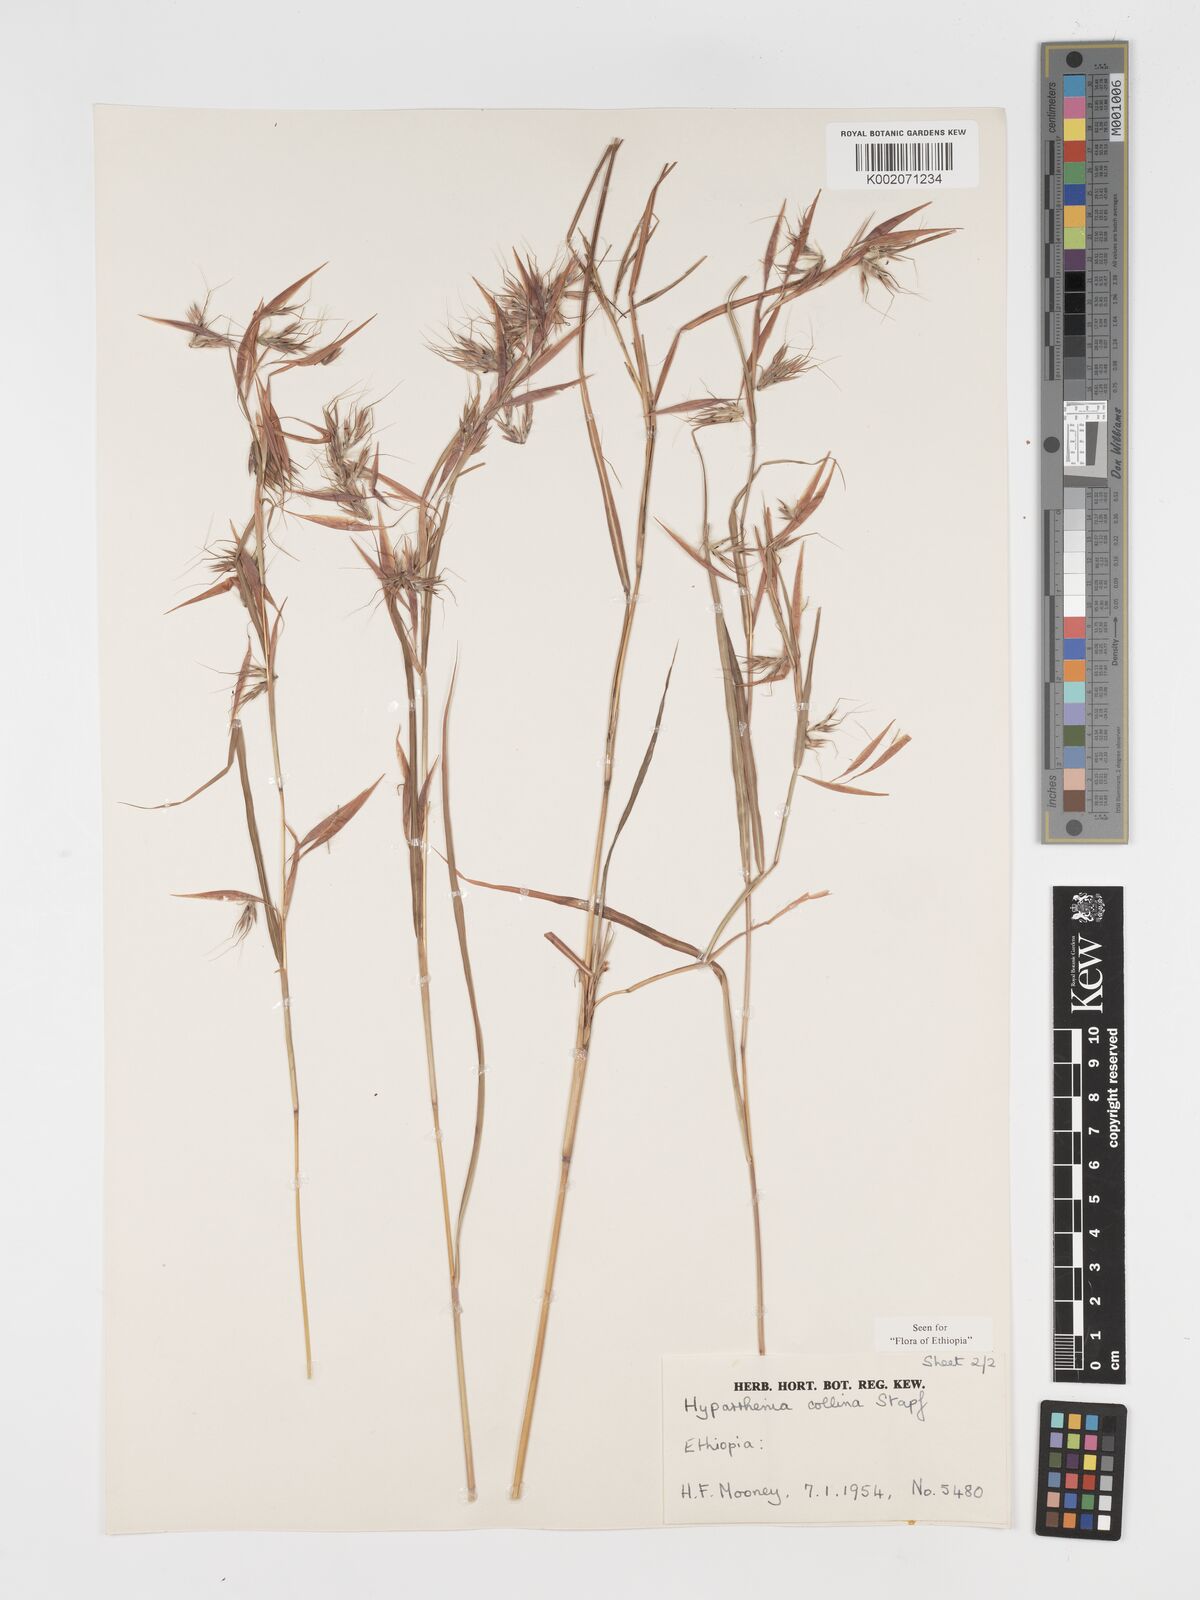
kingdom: Plantae
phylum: Tracheophyta
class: Liliopsida
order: Poales
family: Poaceae
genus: Hyparrhenia
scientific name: Hyparrhenia collina
